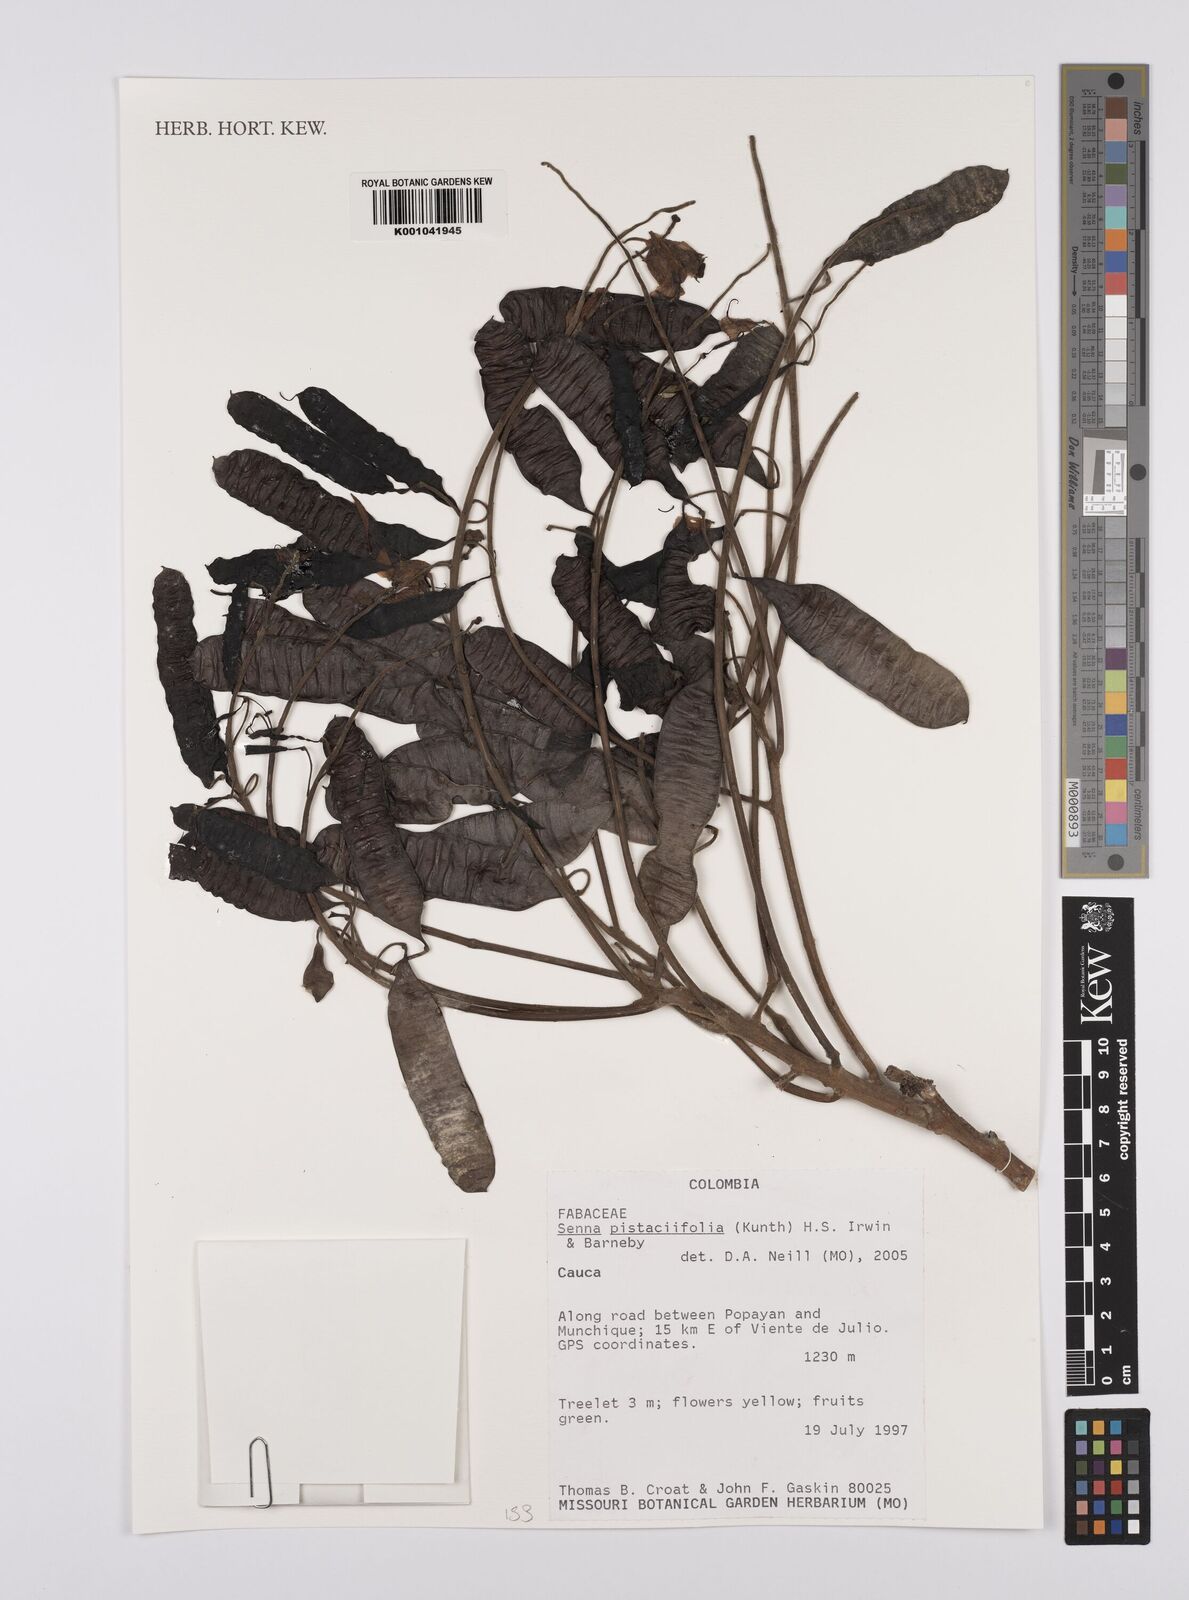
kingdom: Plantae
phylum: Tracheophyta
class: Magnoliopsida
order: Fabales
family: Fabaceae
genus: Senna
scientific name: Senna pistaciifolia
